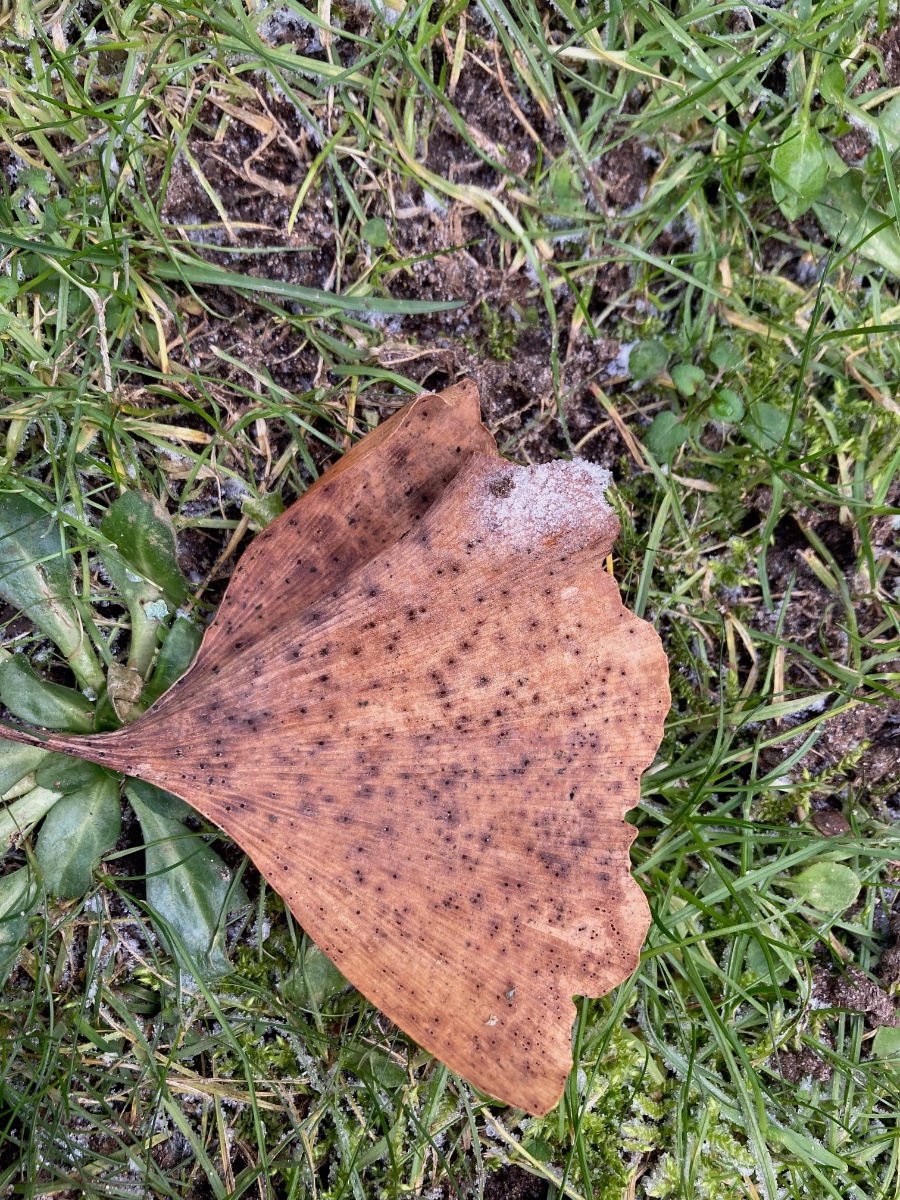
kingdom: Fungi
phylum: Basidiomycota
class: Wallemiomycetes
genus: Bartheletia
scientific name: Bartheletia paradoxa
